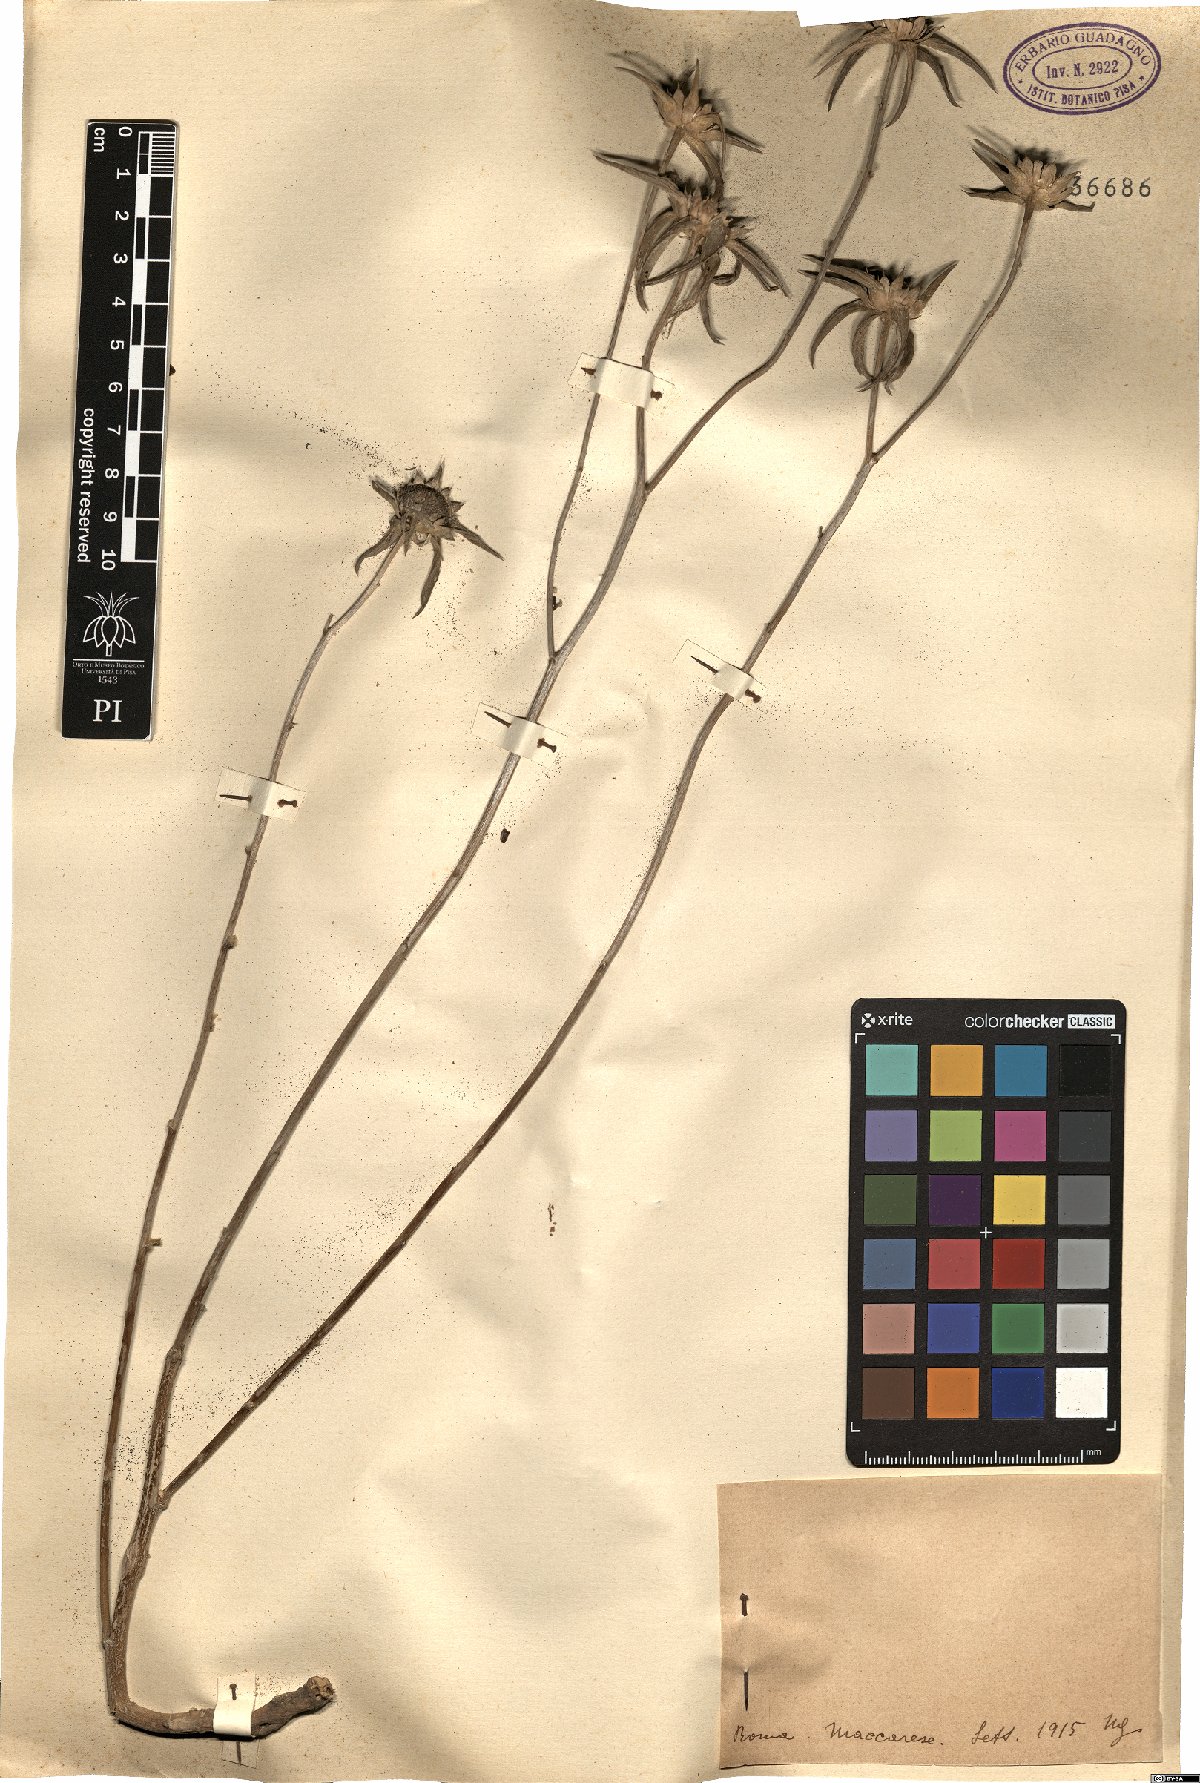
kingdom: Plantae
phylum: Tracheophyta
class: Magnoliopsida
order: Asterales
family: Asteraceae
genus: Asteriscus
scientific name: Asteriscus
